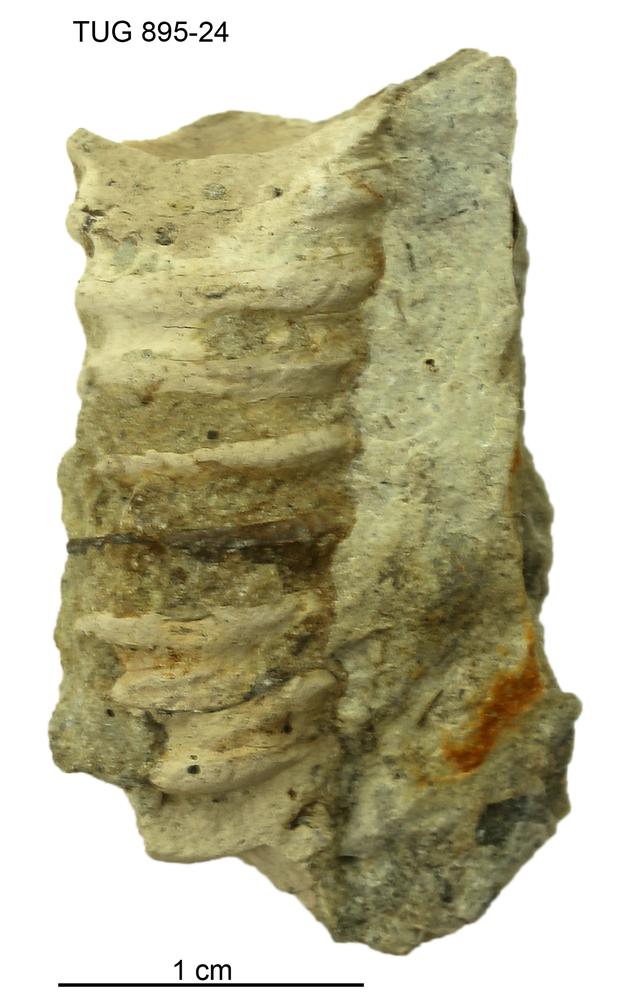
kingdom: Animalia
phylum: Mollusca
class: Cephalopoda
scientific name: Cephalopoda
